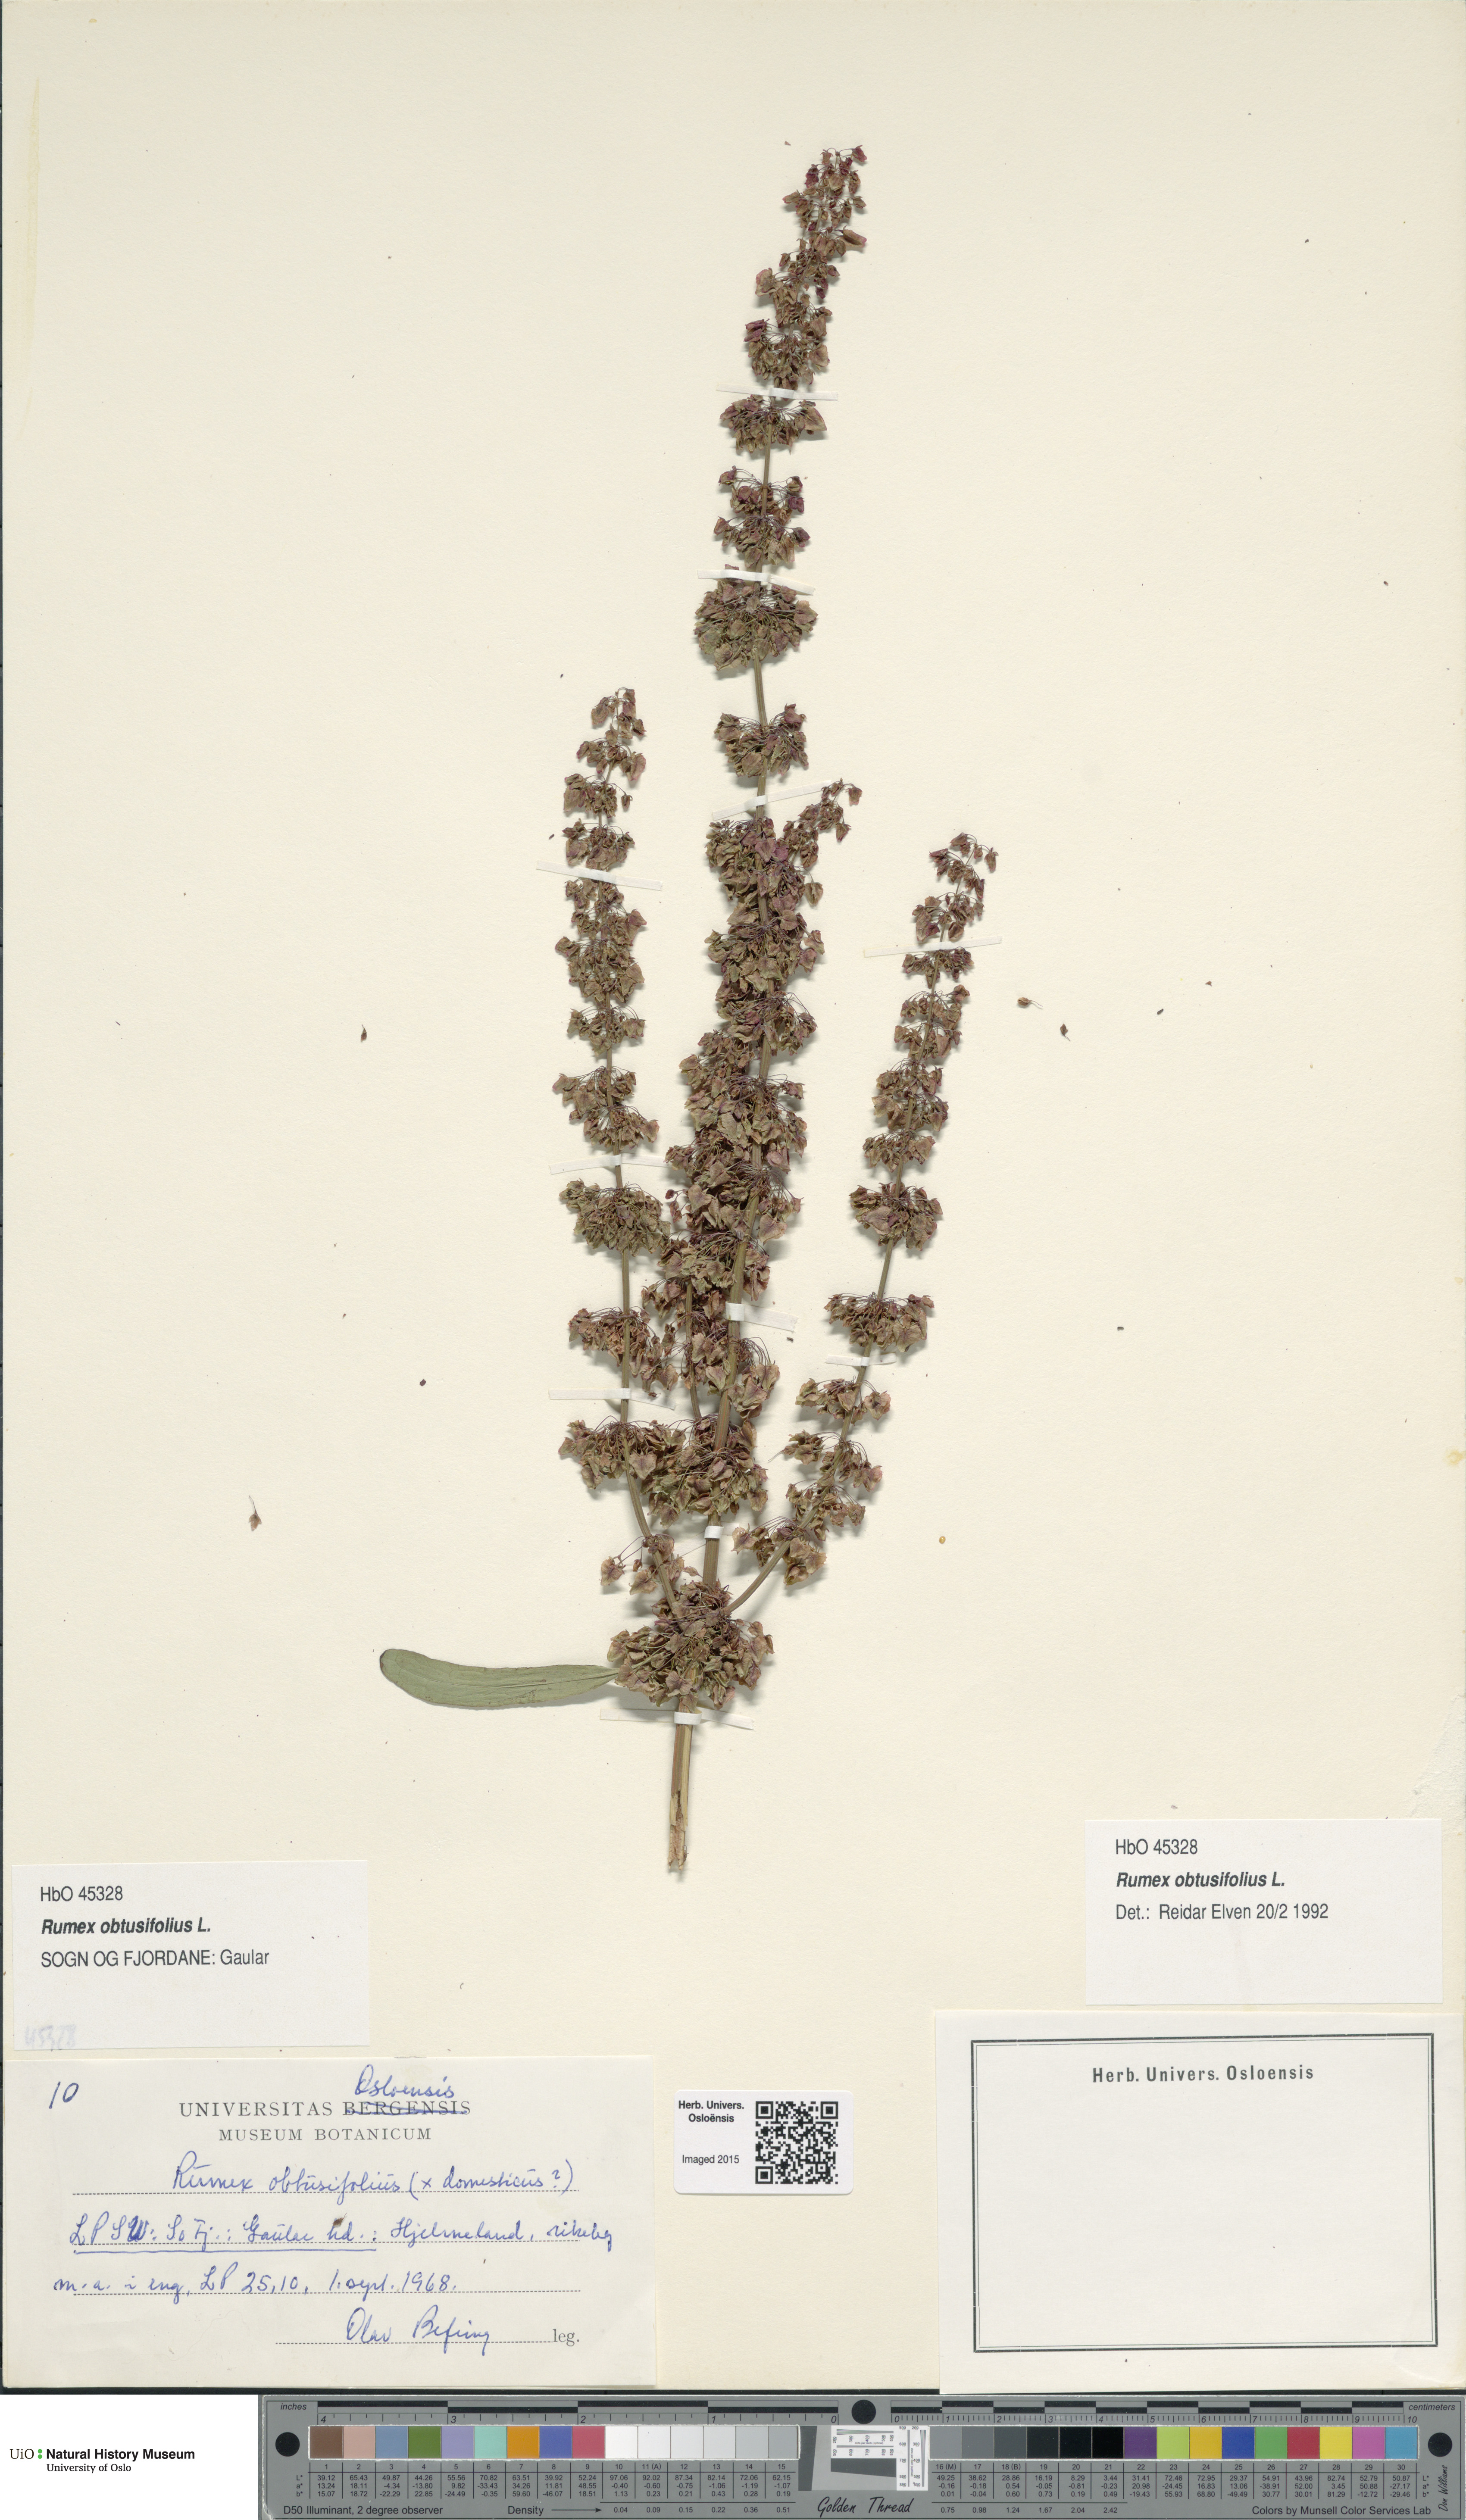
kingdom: Plantae
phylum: Tracheophyta
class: Magnoliopsida
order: Caryophyllales
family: Polygonaceae
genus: Rumex
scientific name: Rumex obtusifolius
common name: Bitter dock
